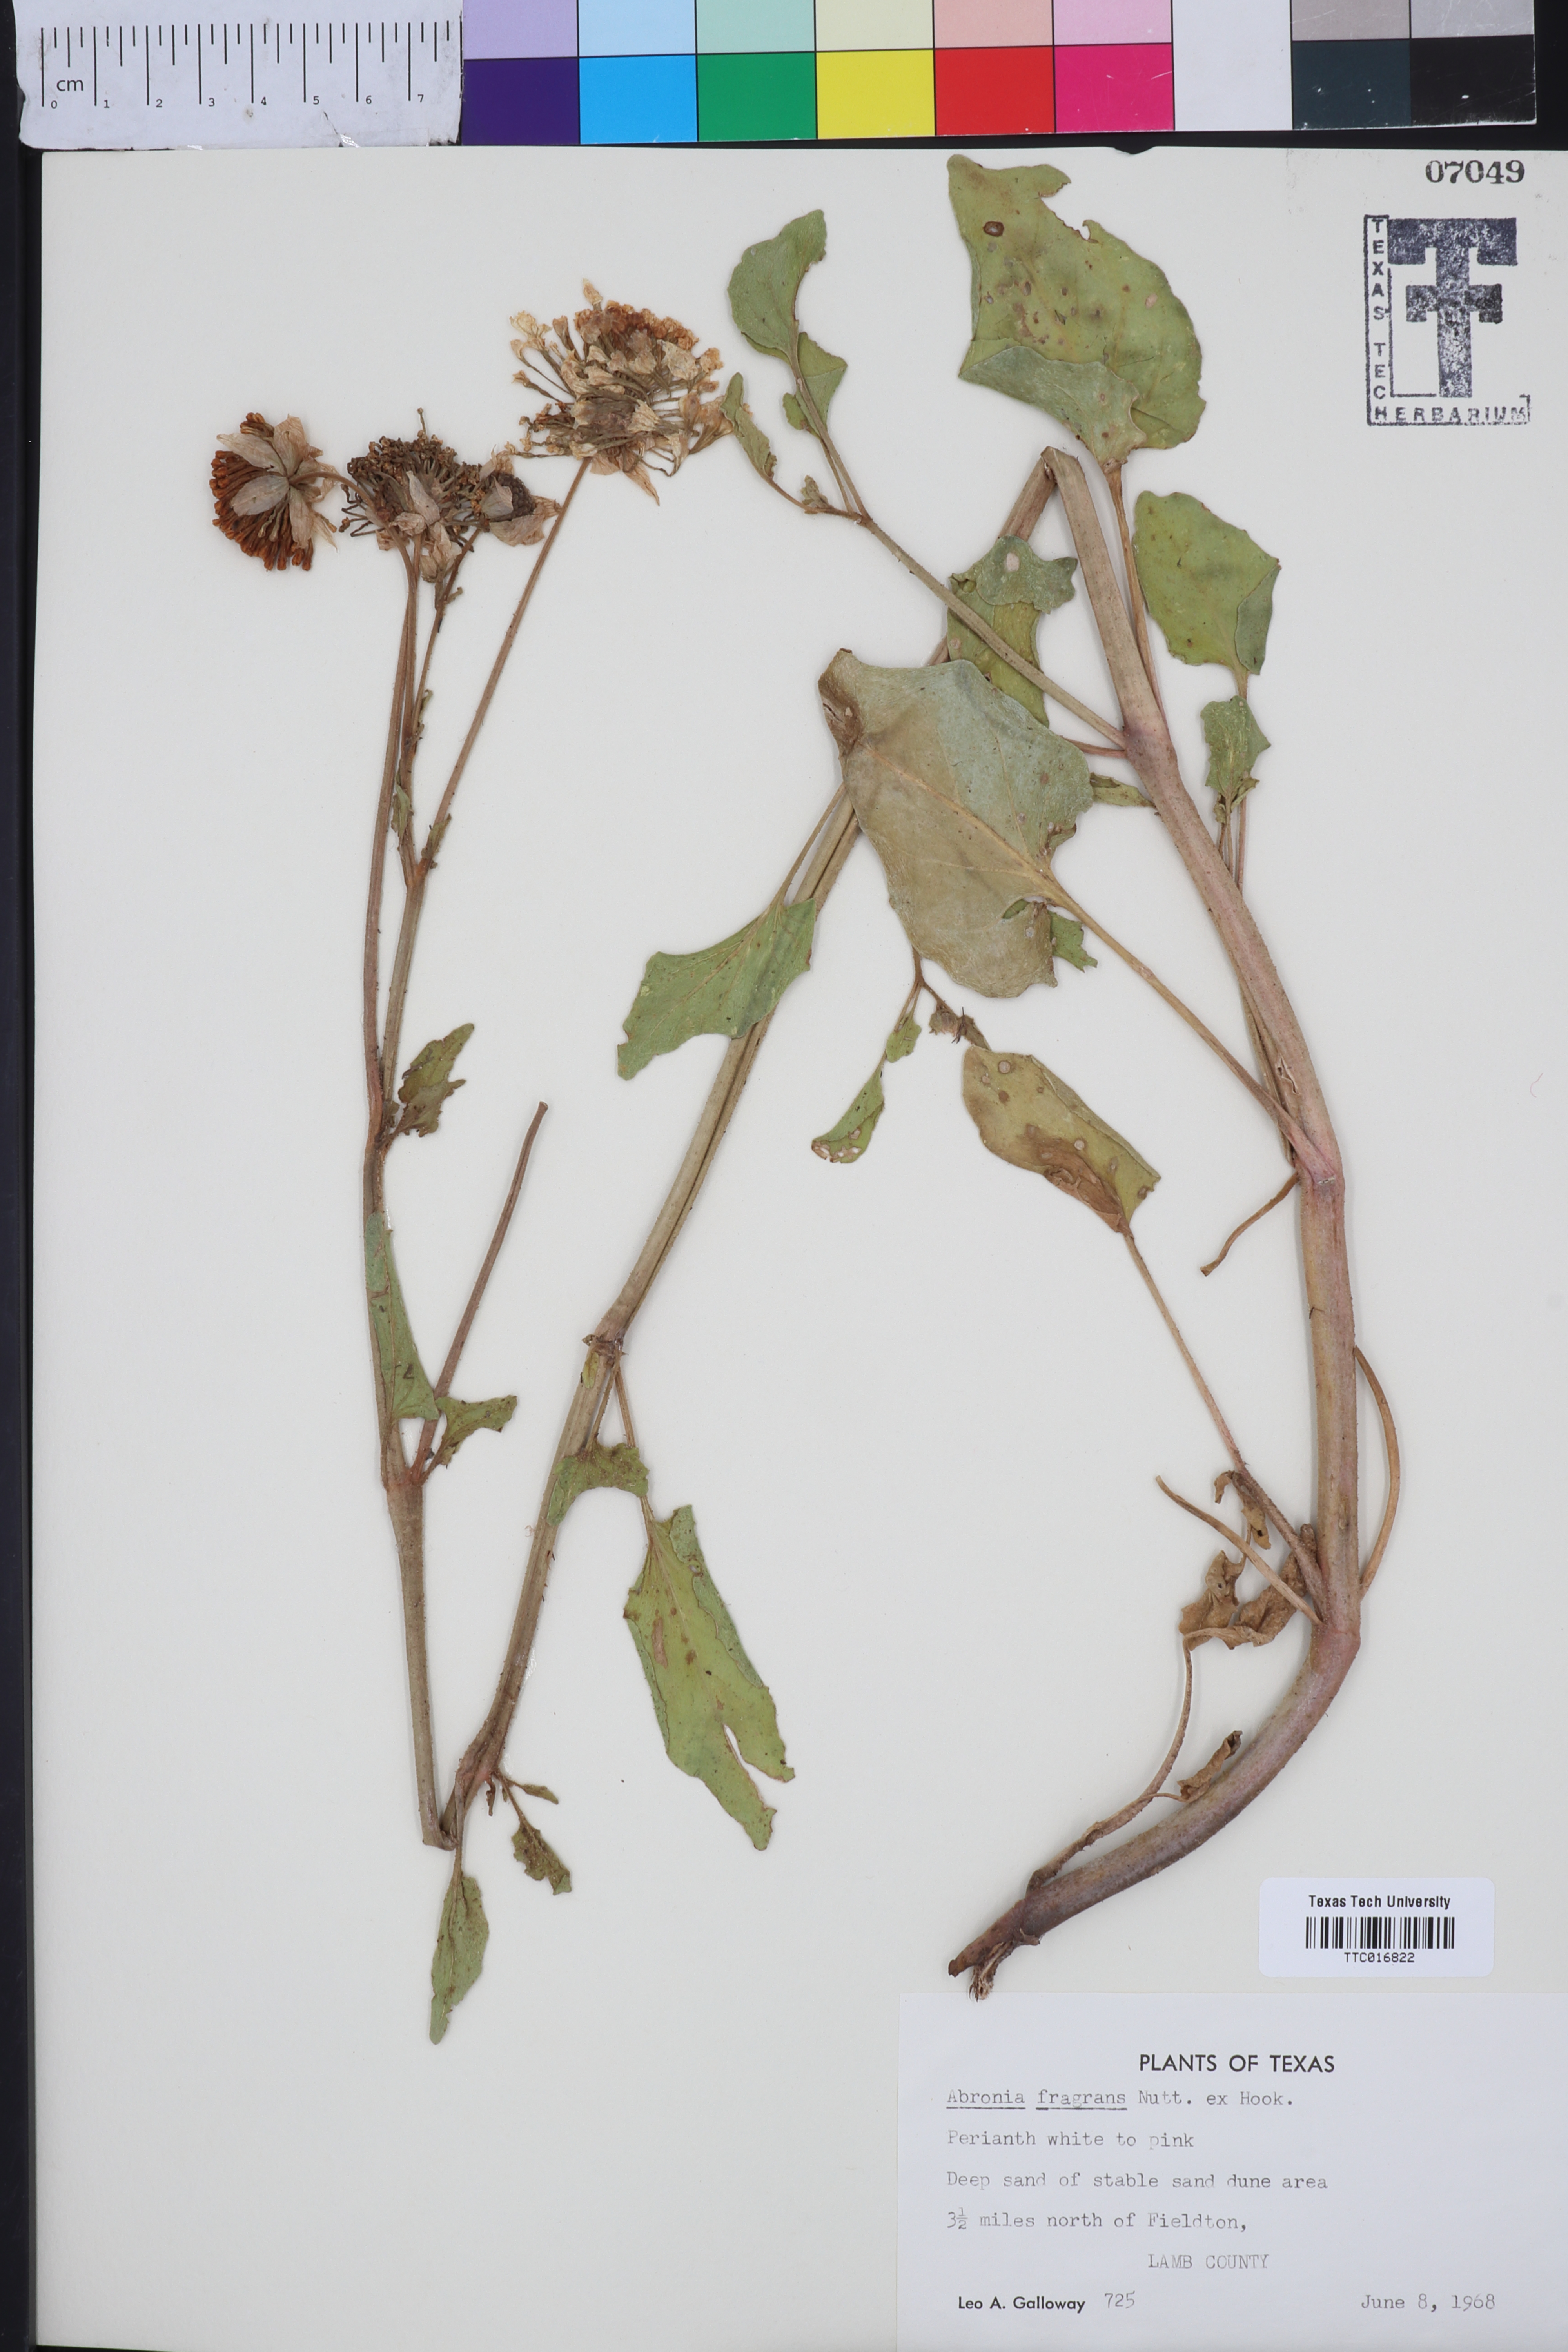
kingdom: Plantae
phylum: Tracheophyta
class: Magnoliopsida
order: Caryophyllales
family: Nyctaginaceae
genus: Abronia
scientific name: Abronia fragrans
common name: Fragrant sand-verbena
